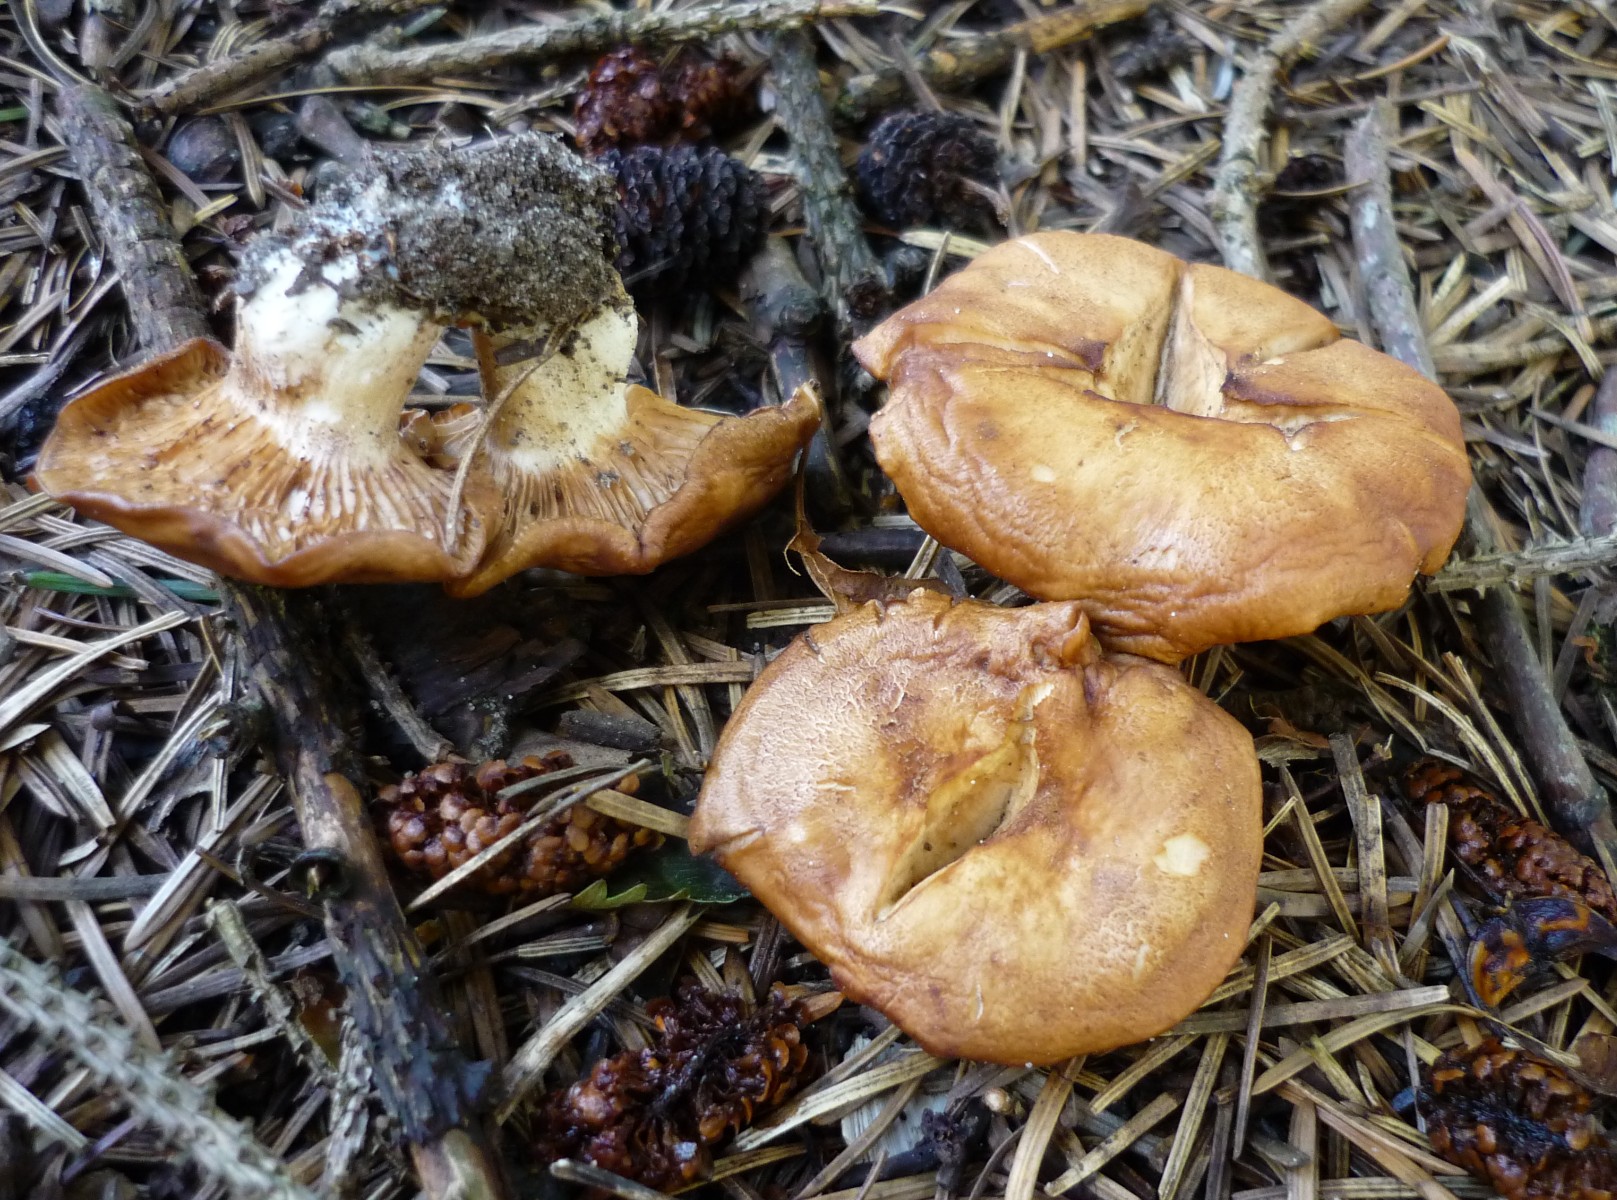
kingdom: Fungi
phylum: Basidiomycota
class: Agaricomycetes
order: Agaricales
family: Entolomataceae
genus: Clitopilus
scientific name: Clitopilus geminus
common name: kødfarvet troldhat
